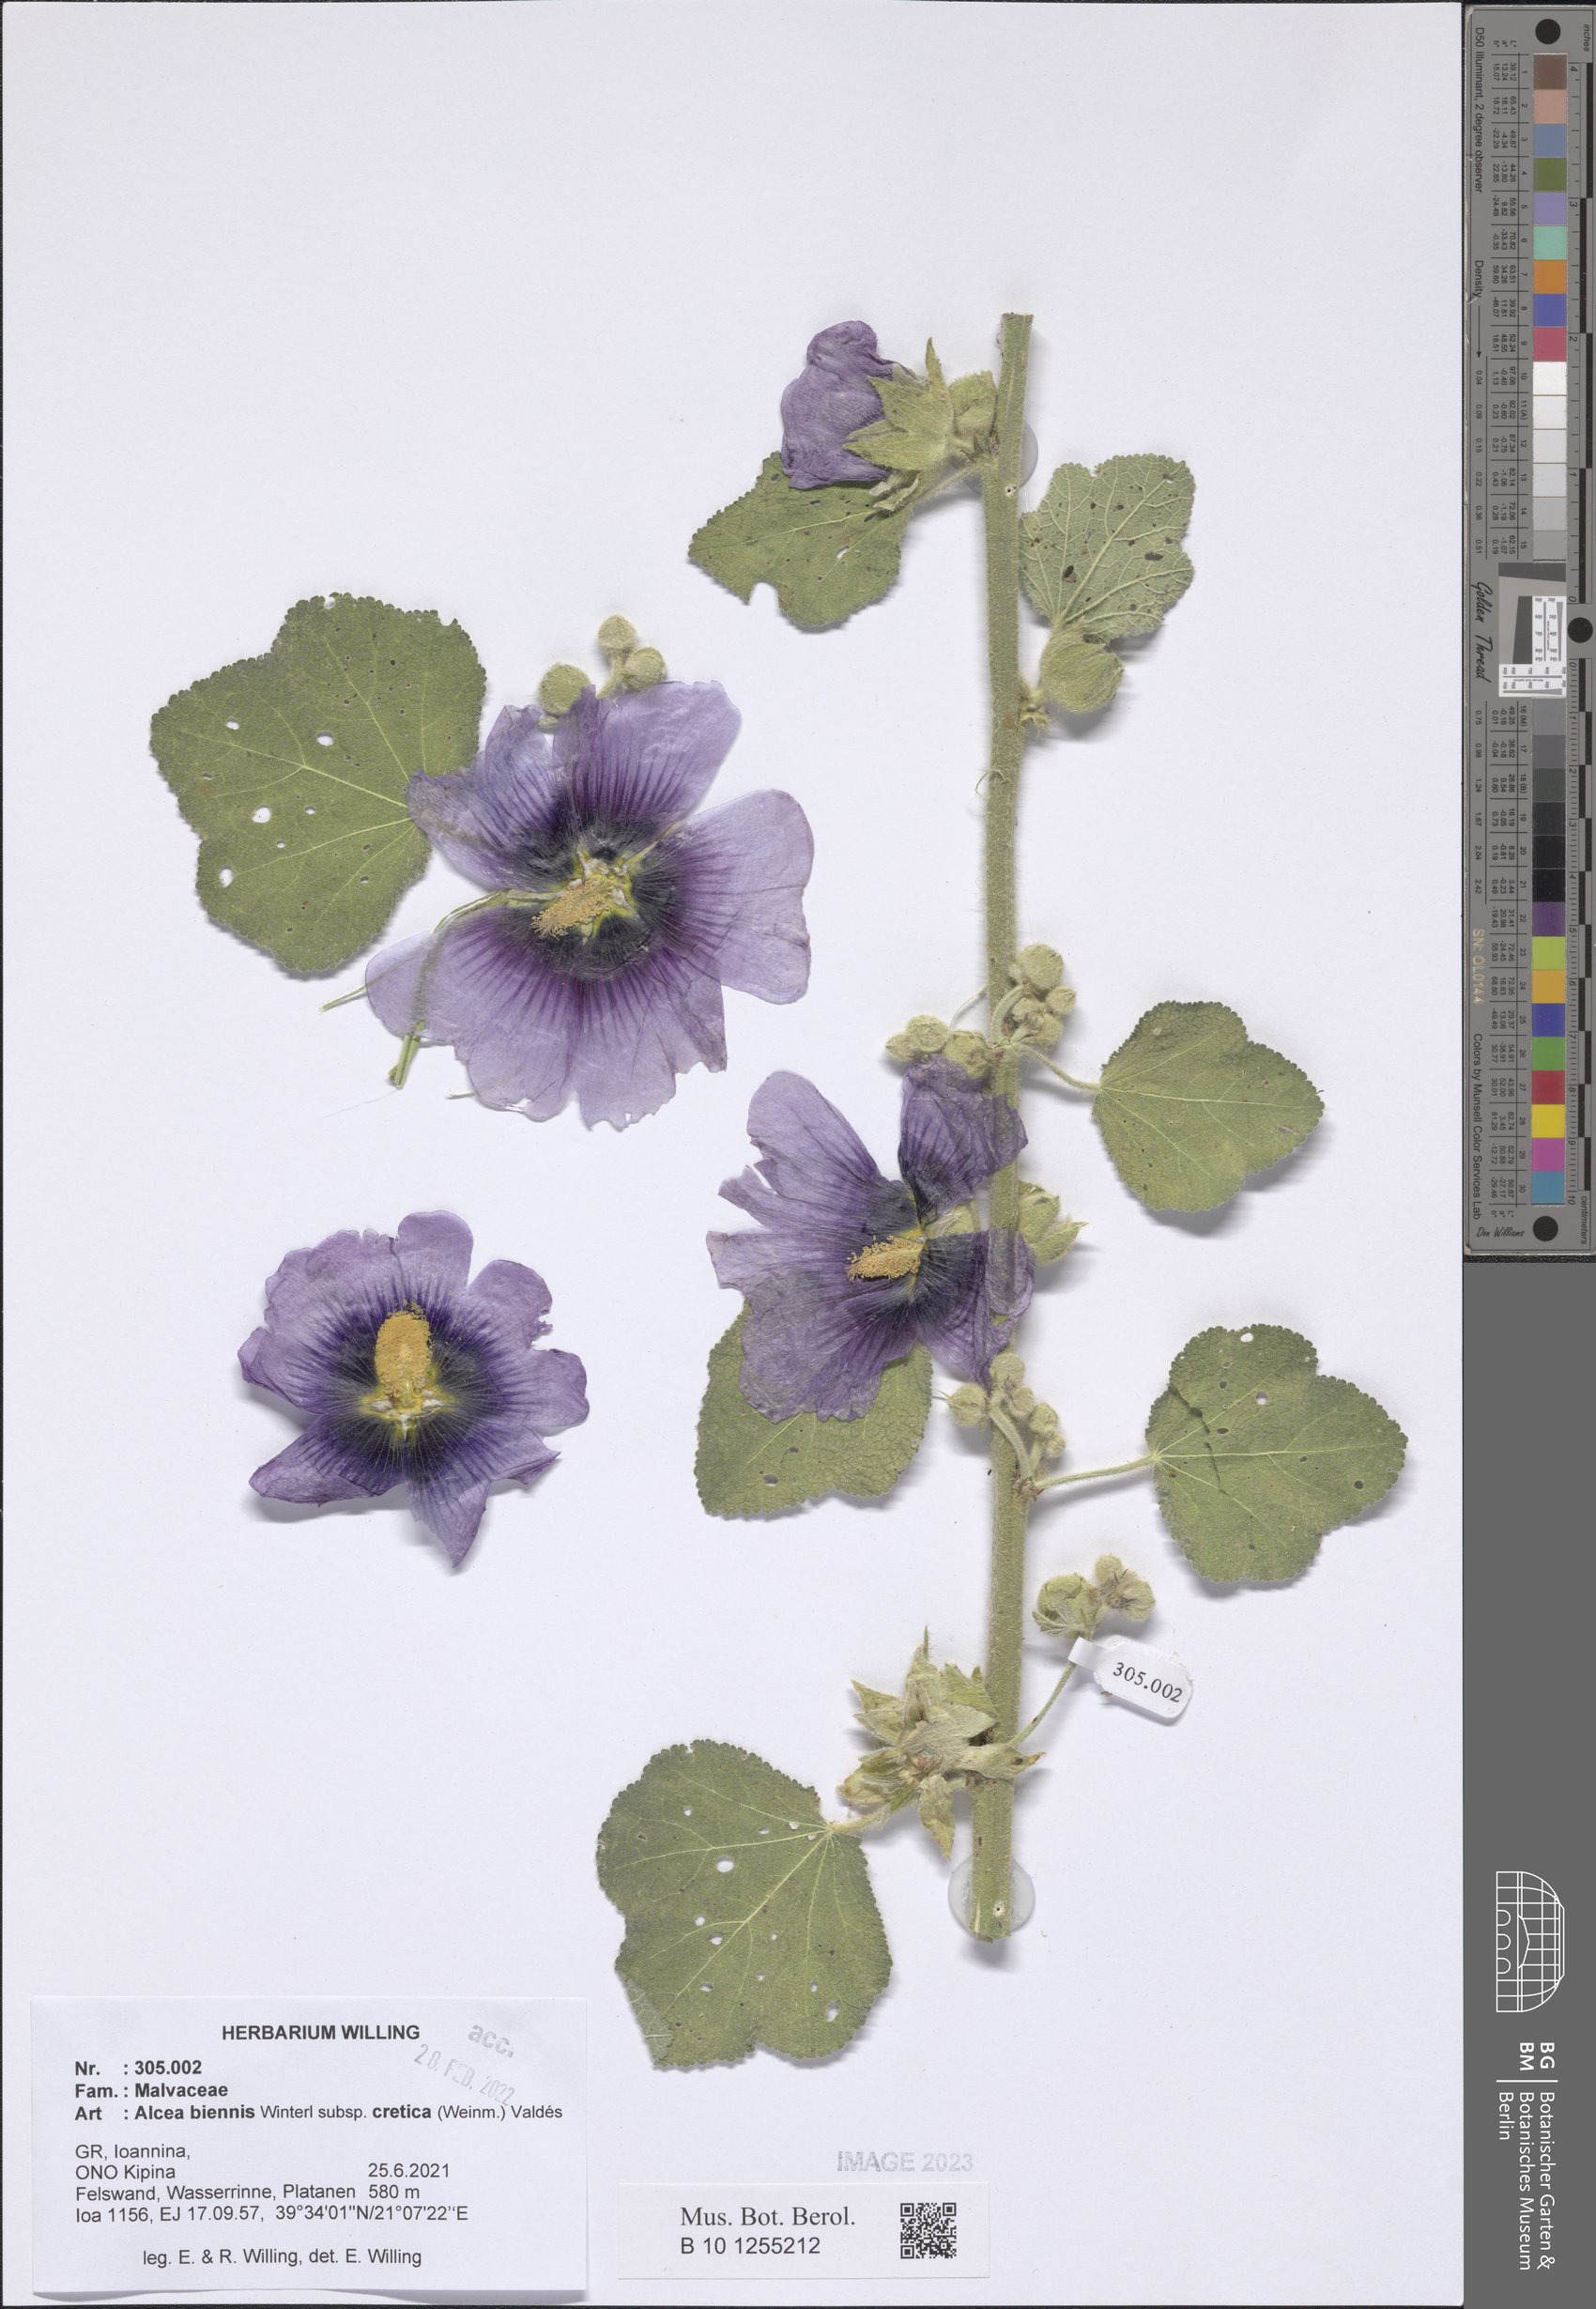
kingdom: Plantae
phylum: Tracheophyta
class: Magnoliopsida
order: Malvales
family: Malvaceae
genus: Alcea
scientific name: Alcea biennis
